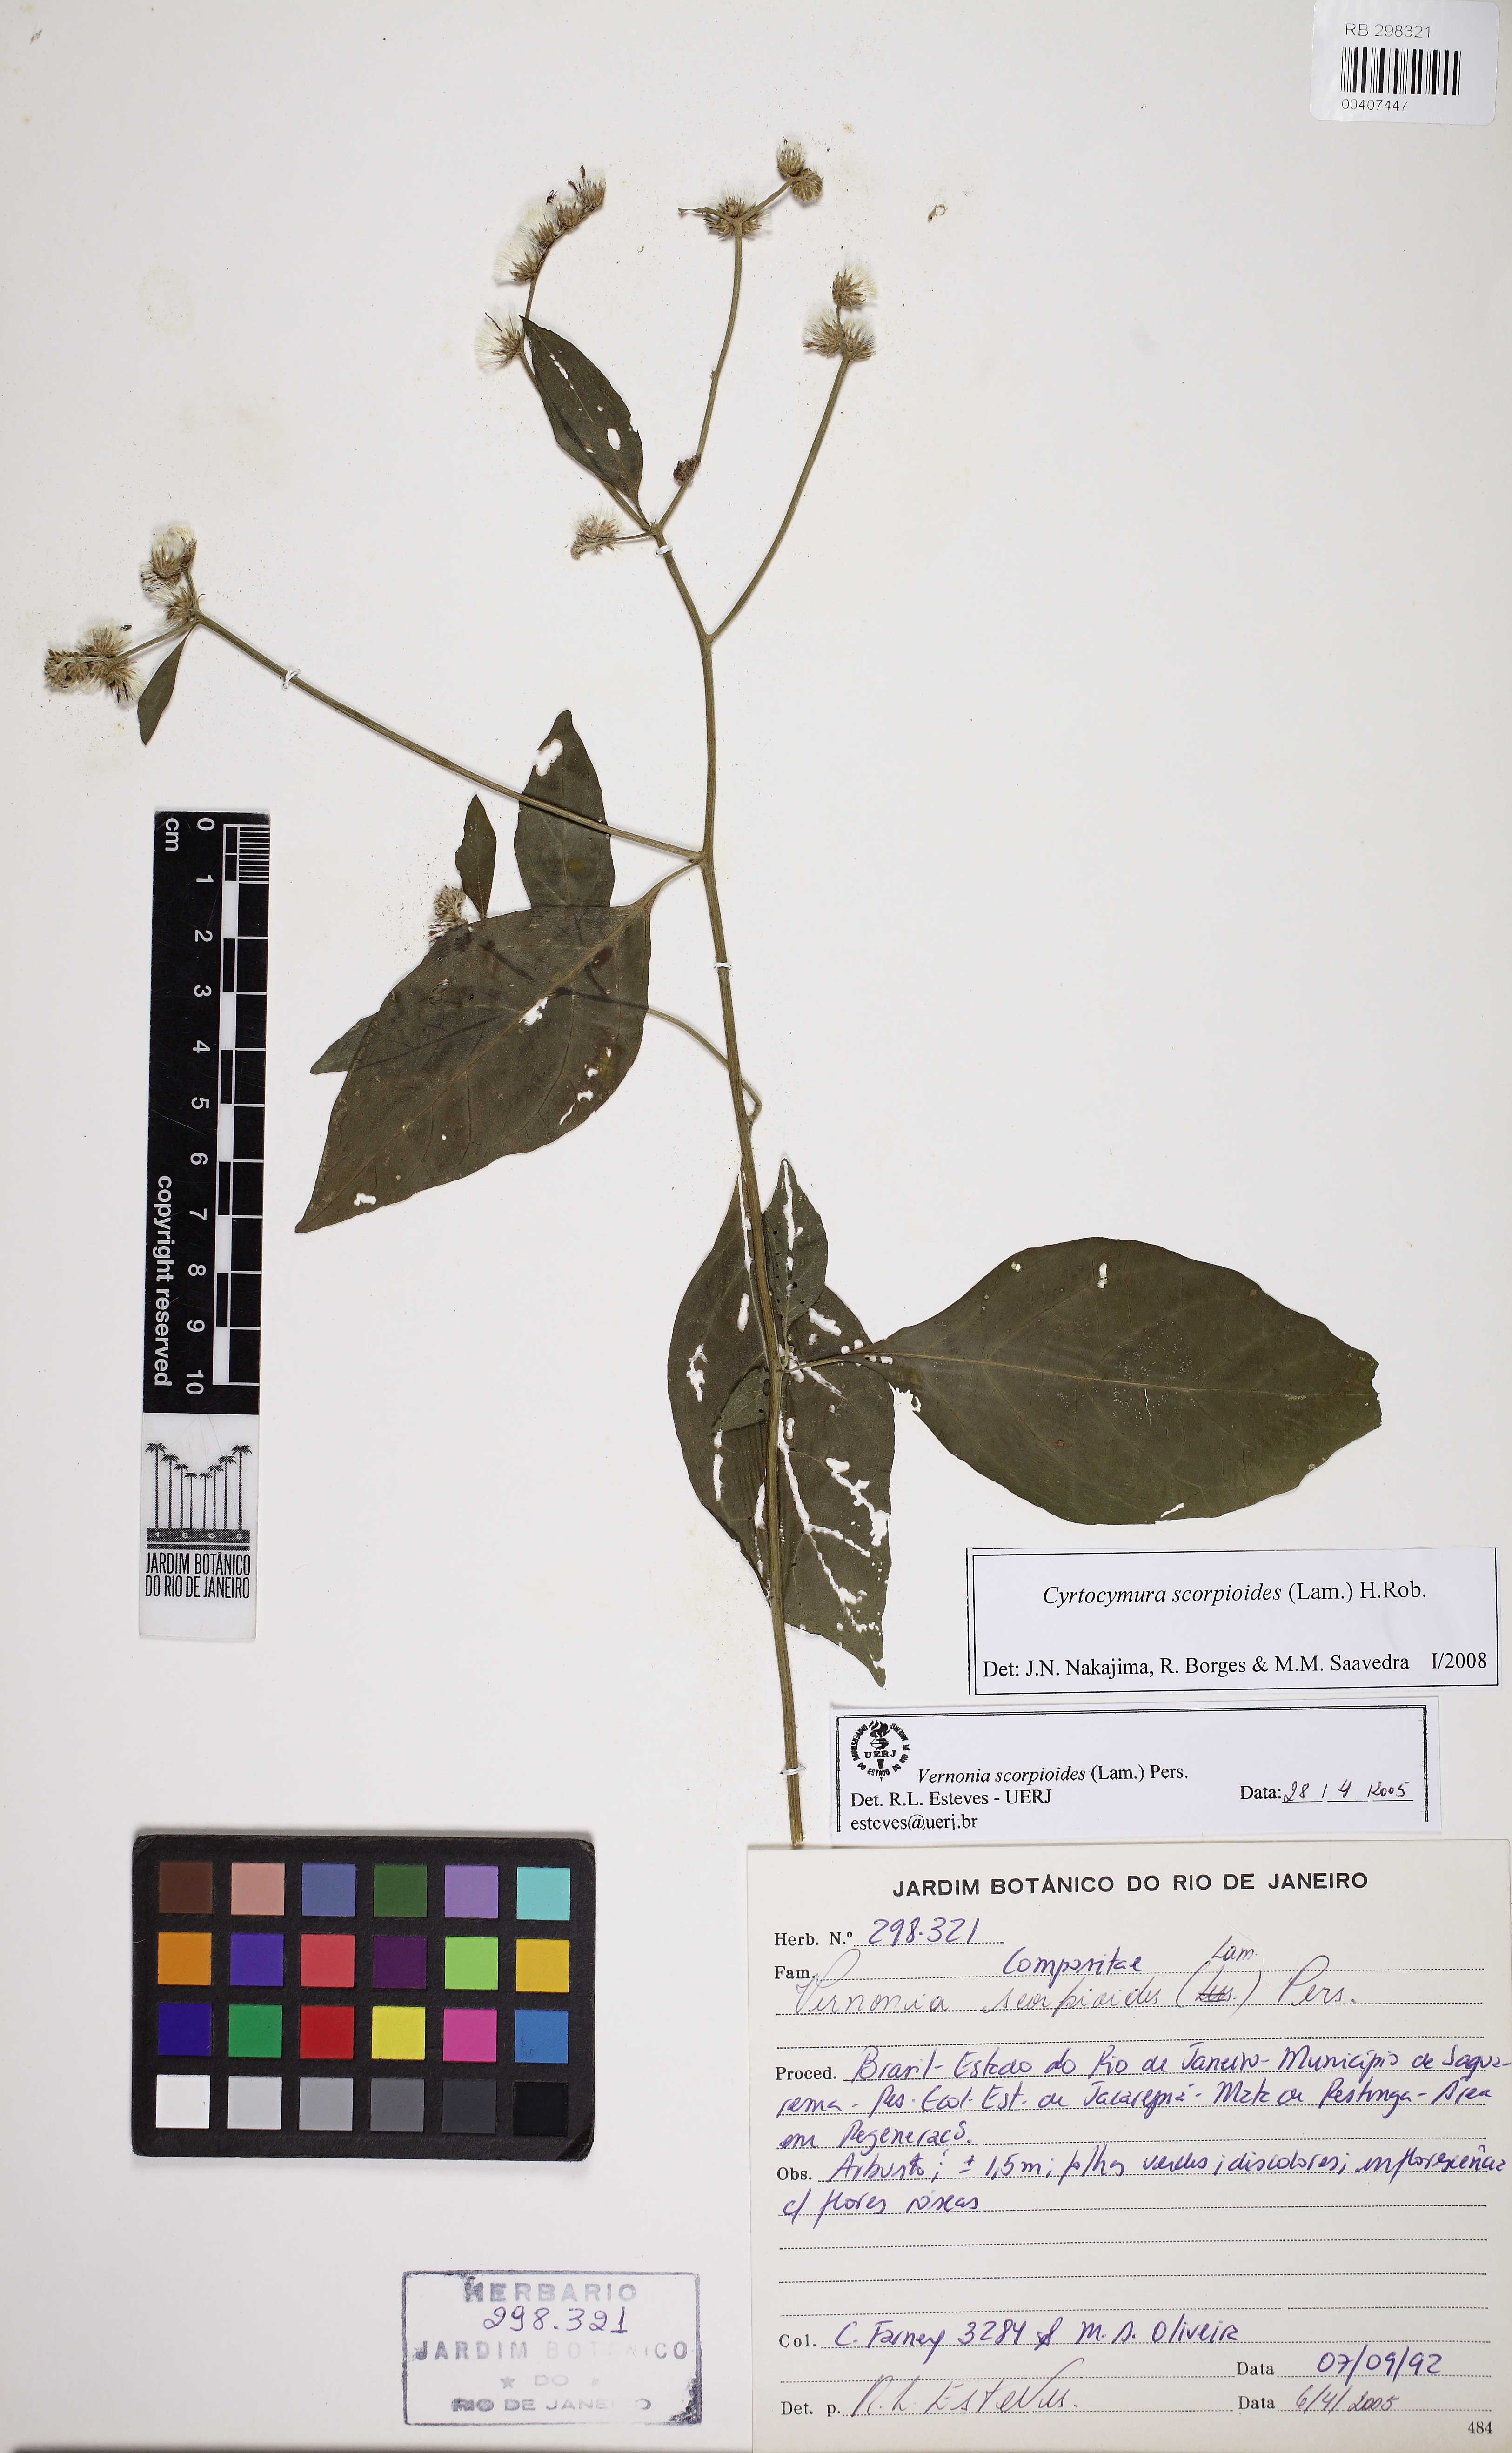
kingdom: Plantae
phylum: Tracheophyta
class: Magnoliopsida
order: Asterales
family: Asteraceae
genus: Cyrtocymura
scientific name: Cyrtocymura scorpioides
